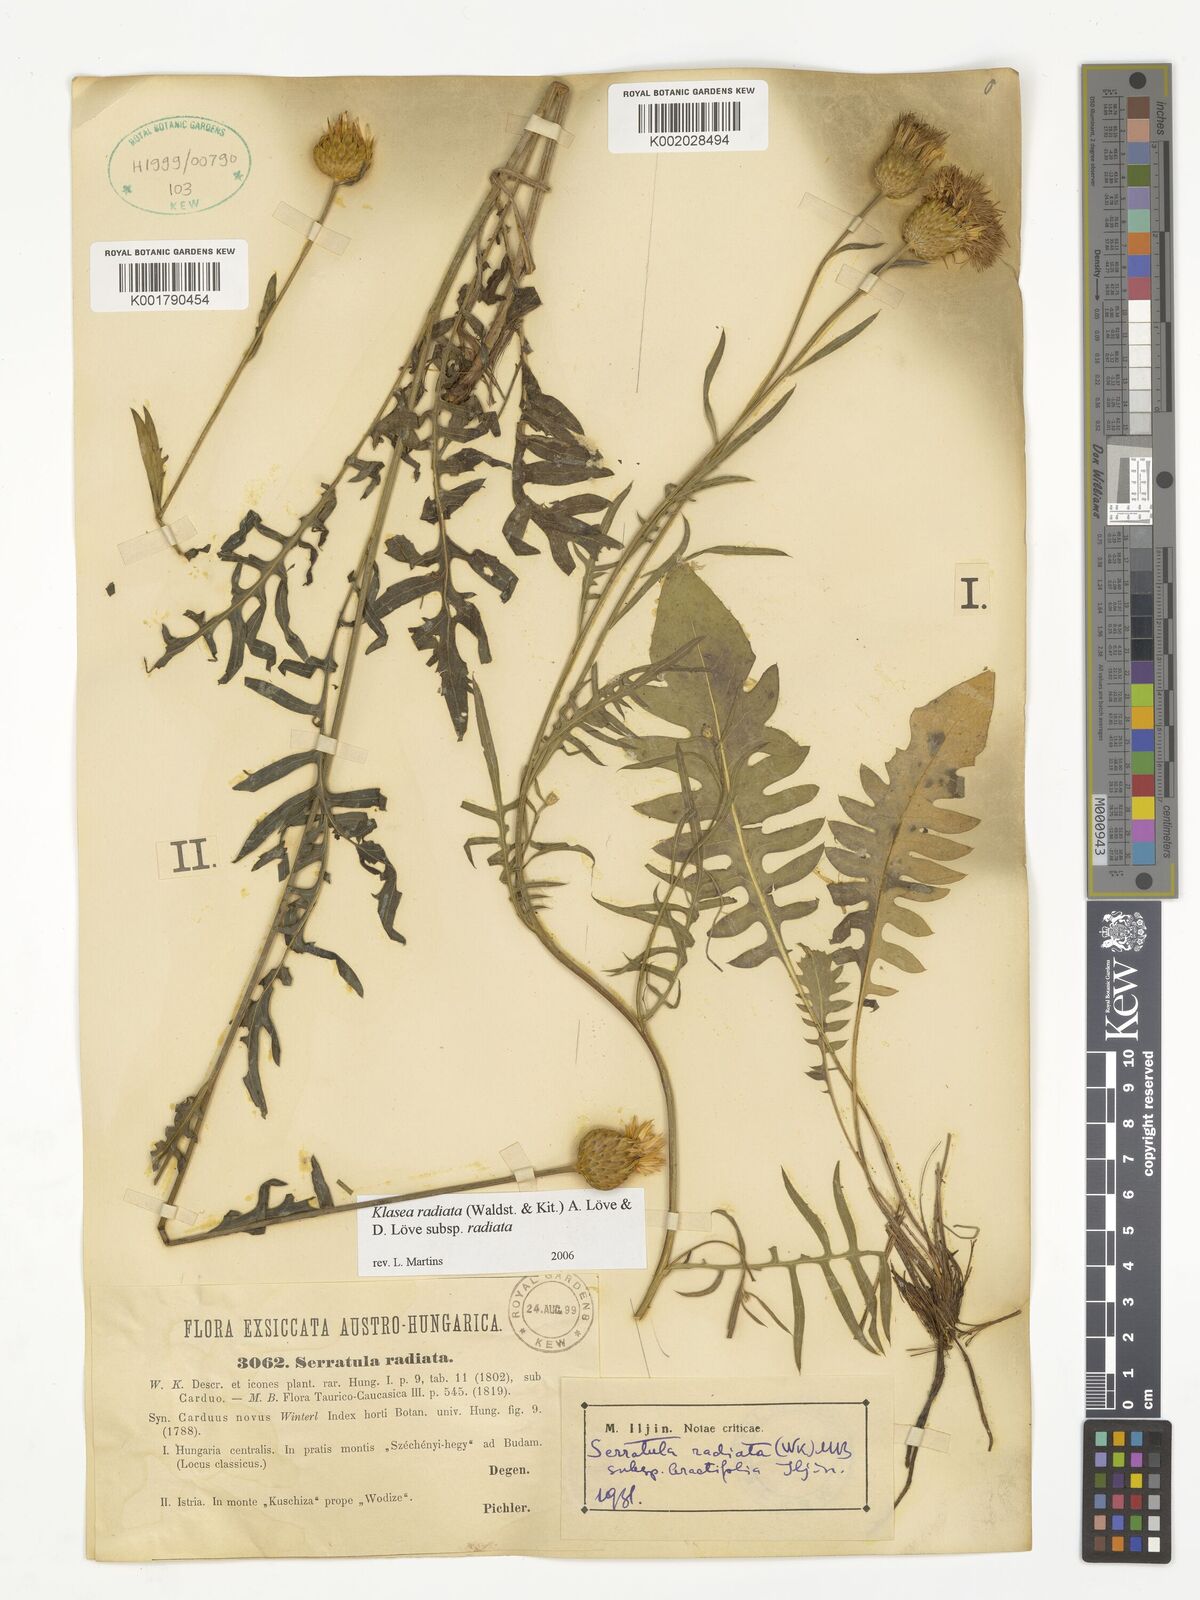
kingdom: Plantae
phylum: Tracheophyta
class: Magnoliopsida
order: Asterales
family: Asteraceae
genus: Klasea
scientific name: Klasea radiata
